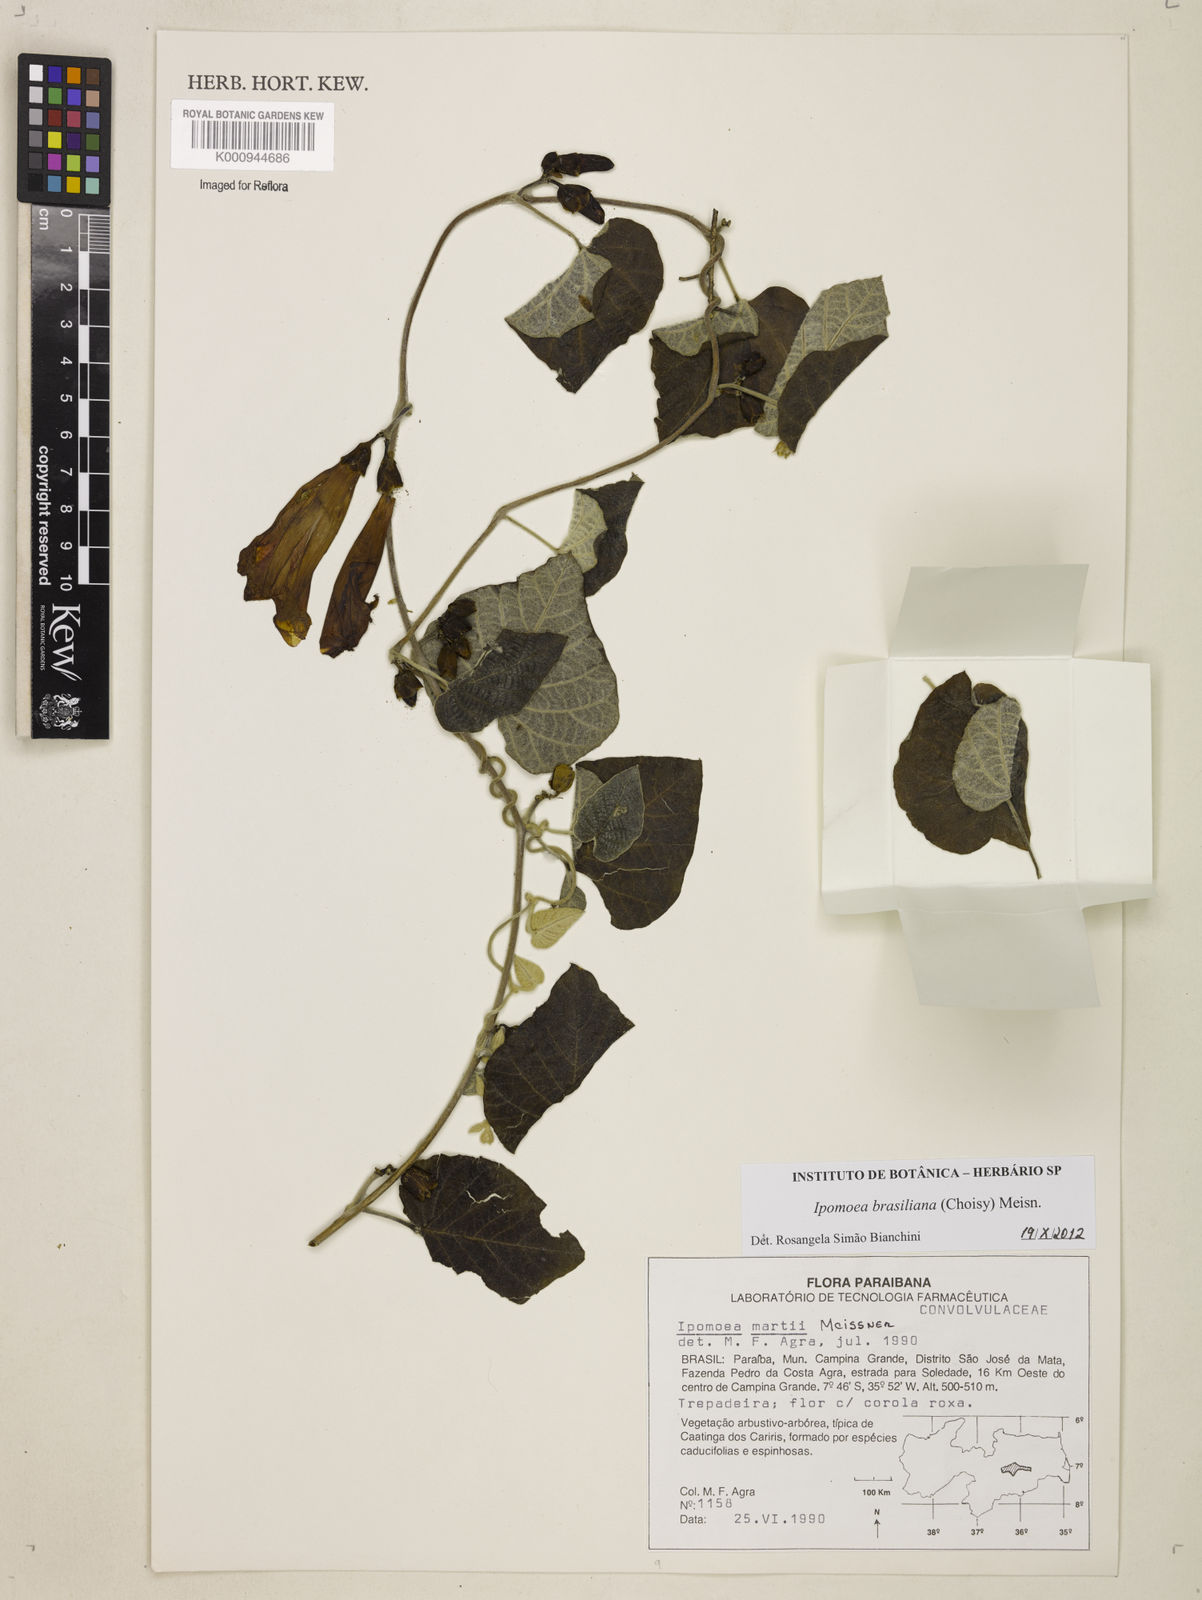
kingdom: Plantae
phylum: Tracheophyta
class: Magnoliopsida
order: Solanales
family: Convolvulaceae
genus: Ipomoea
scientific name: Ipomoea brasiliana
